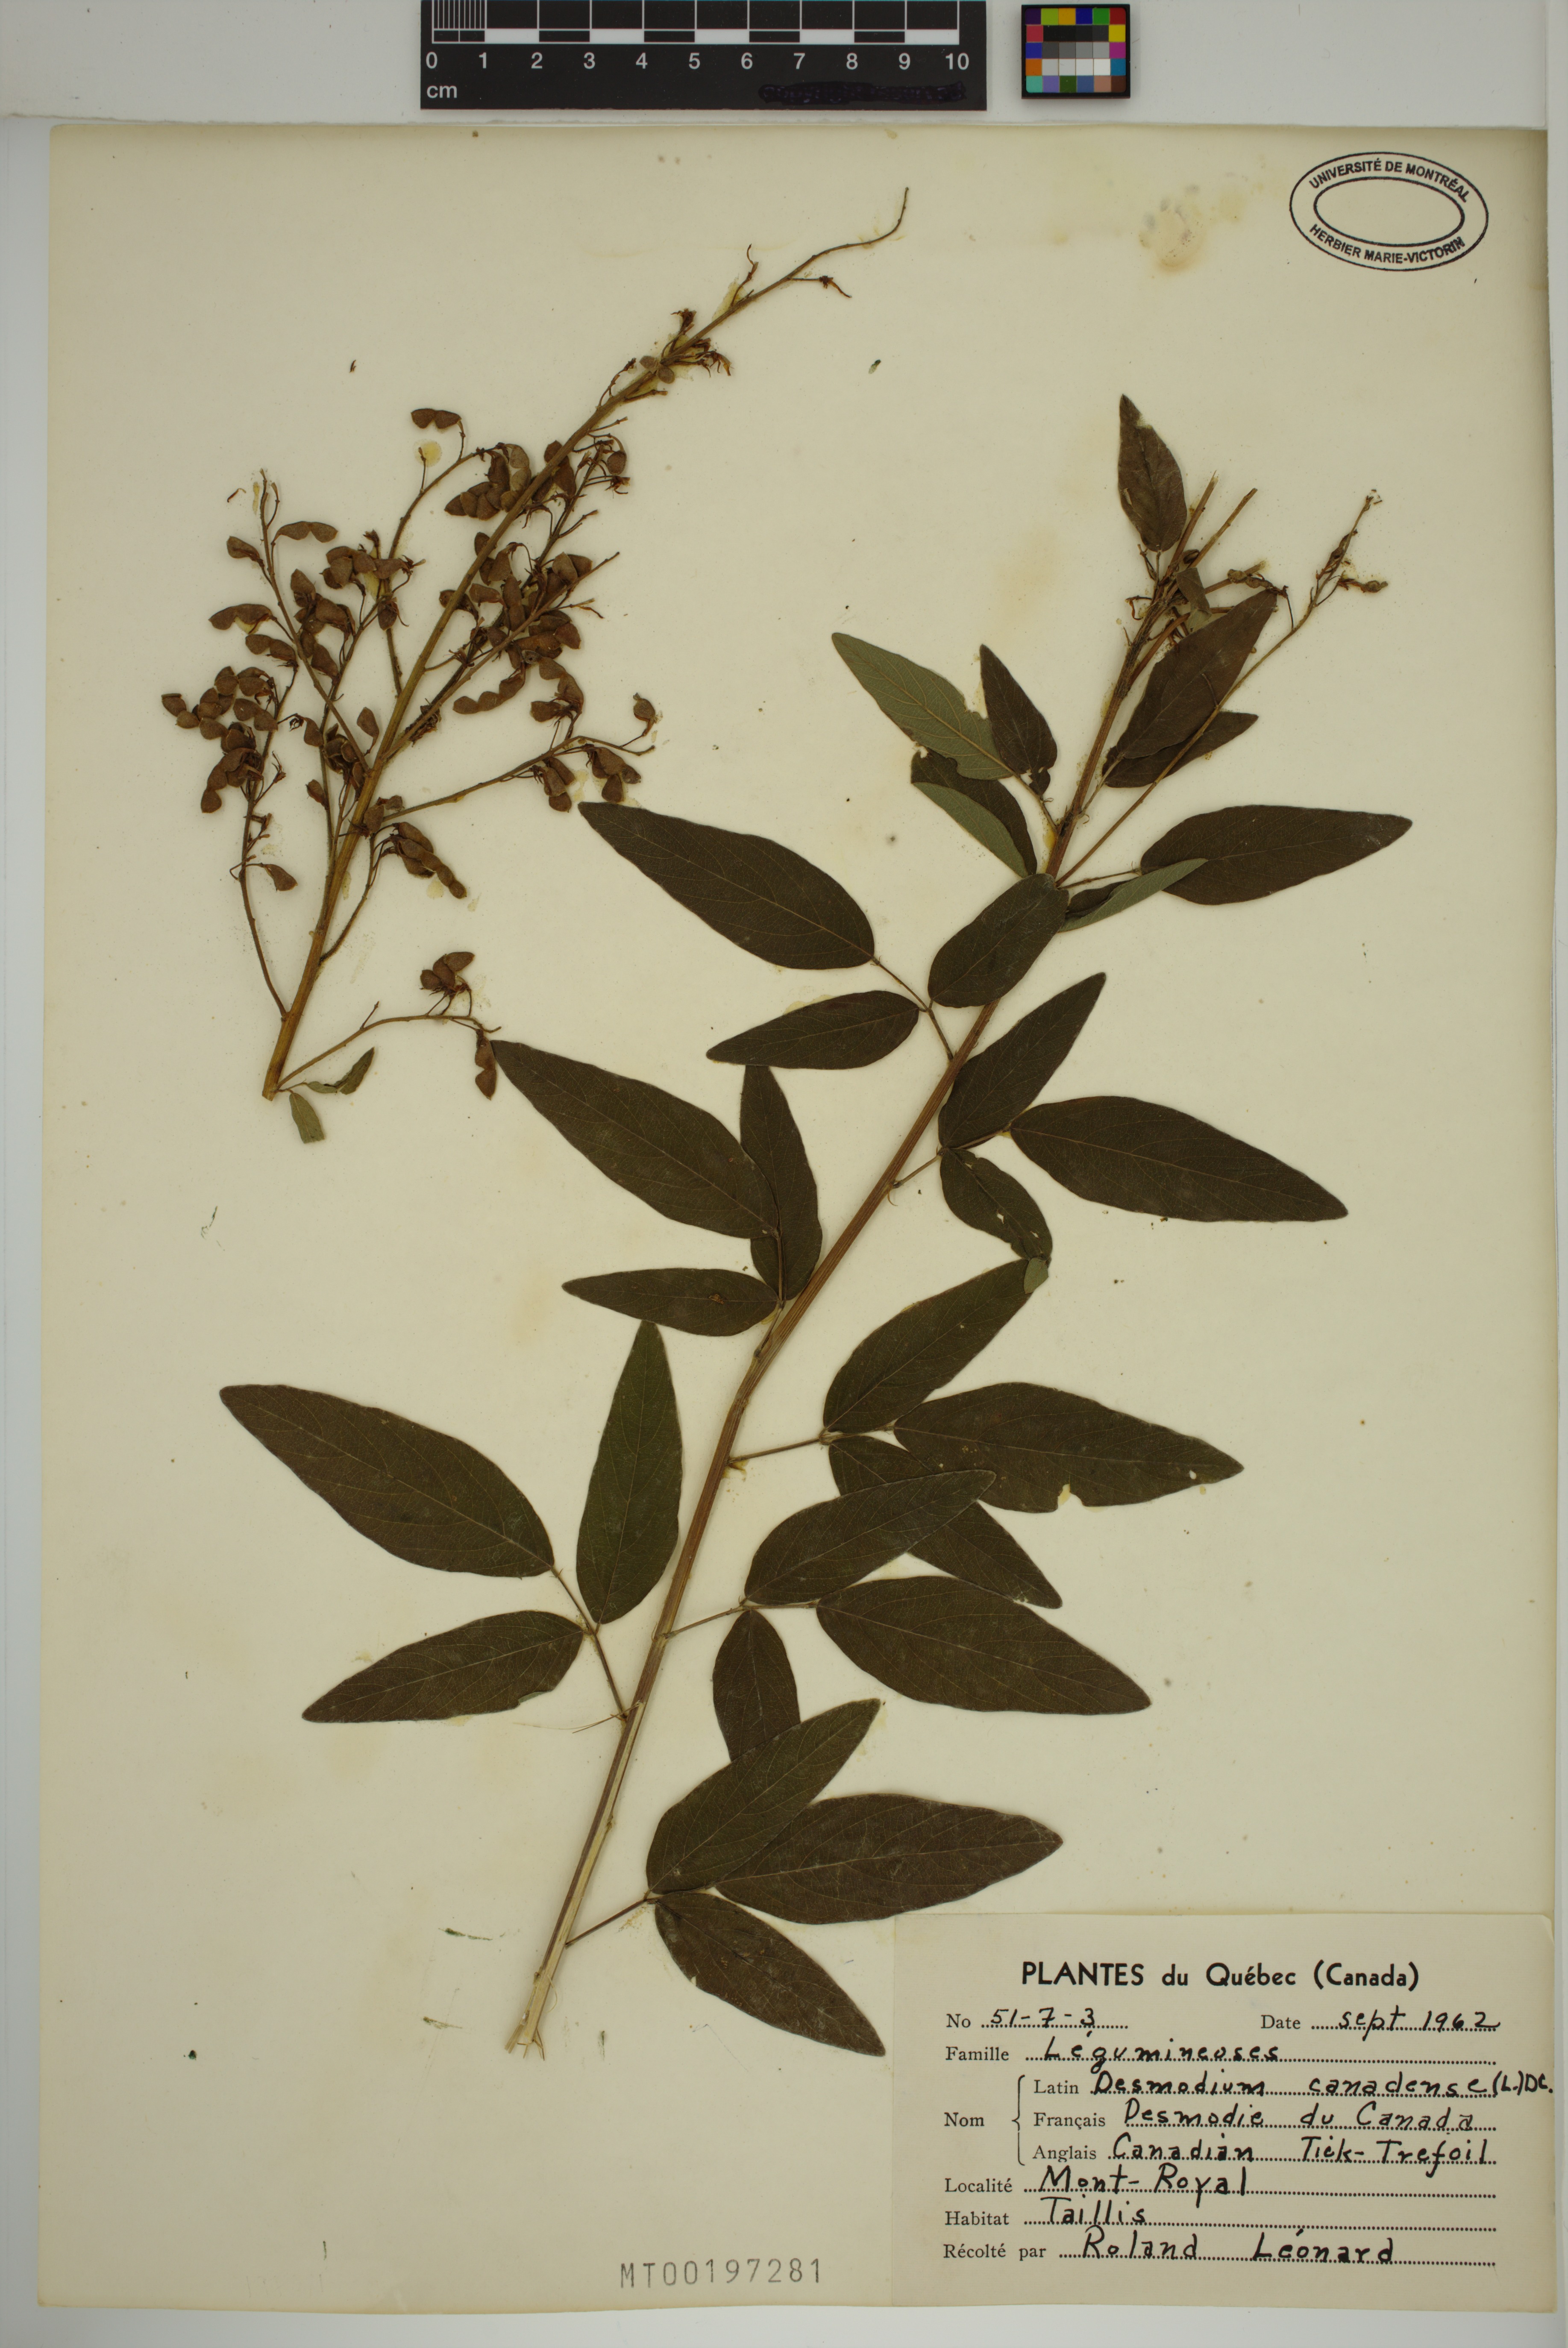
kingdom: Plantae
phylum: Tracheophyta
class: Magnoliopsida
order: Fabales
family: Fabaceae
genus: Desmodium
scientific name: Desmodium canadense
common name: Canada tick-trefoil
